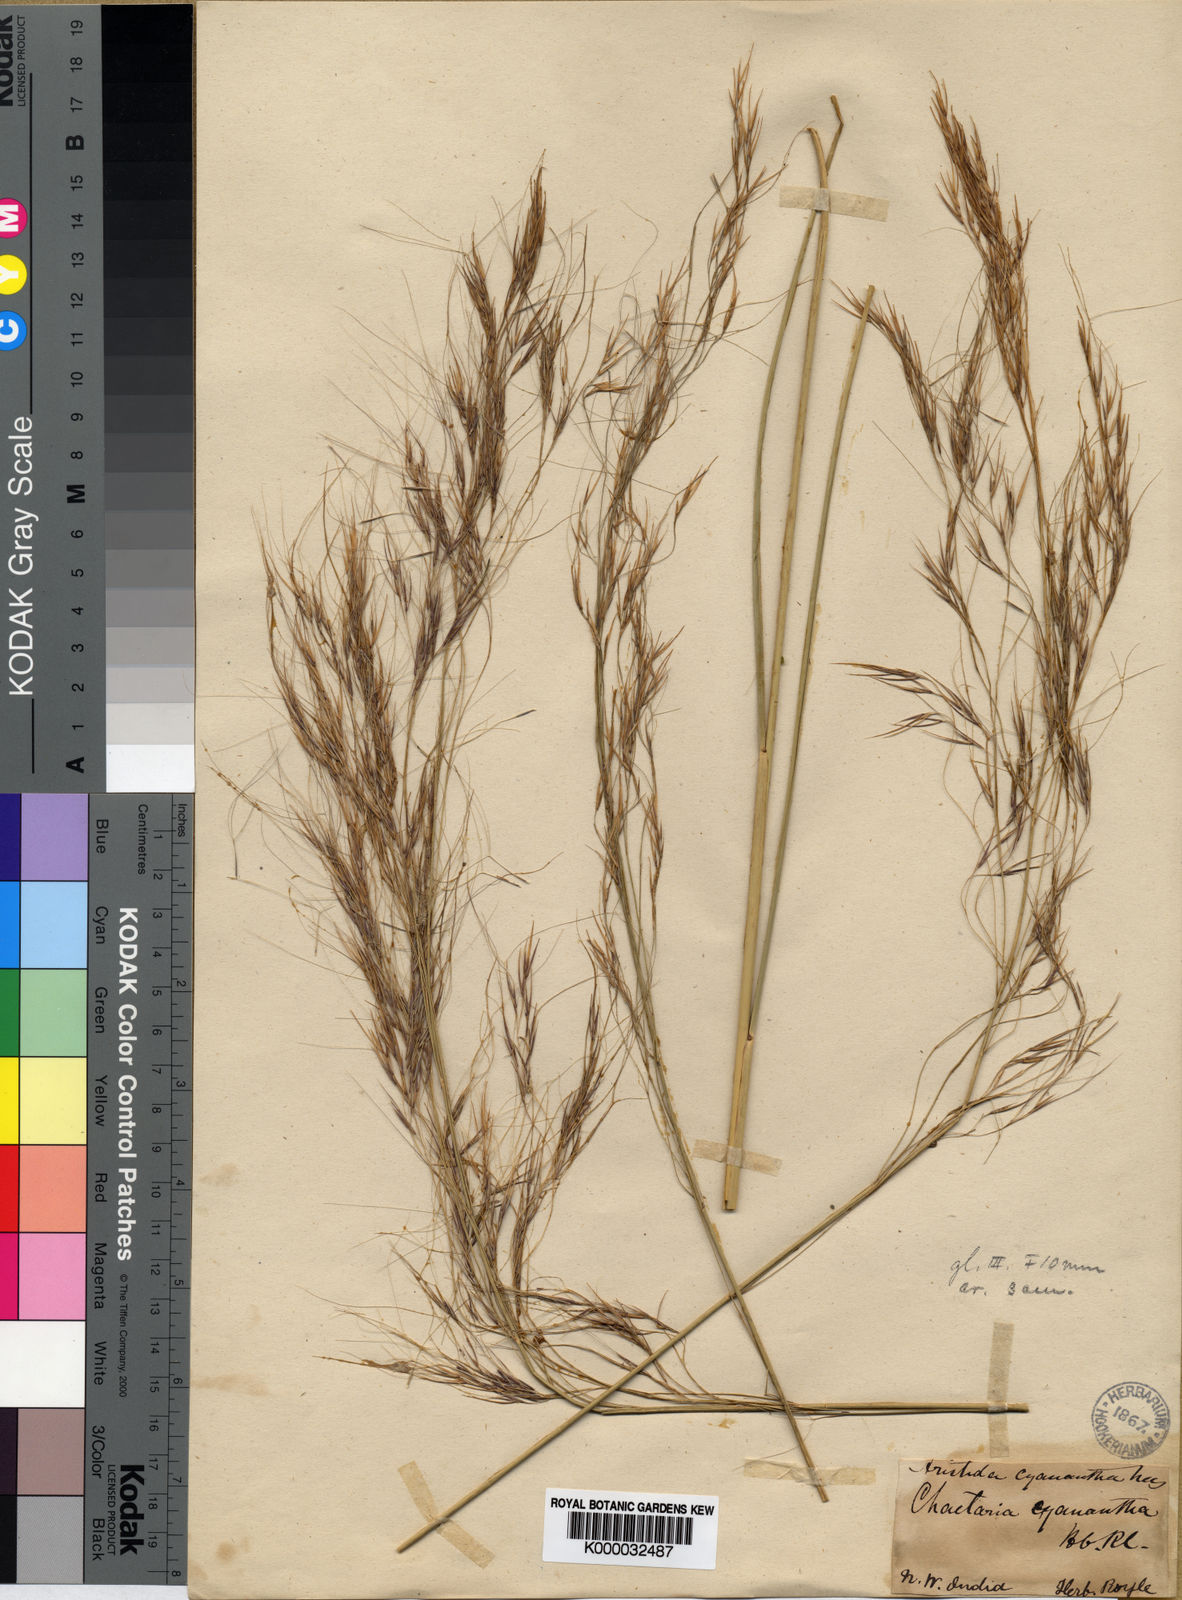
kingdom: Plantae
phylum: Tracheophyta
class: Liliopsida
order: Poales
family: Poaceae
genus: Aristida
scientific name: Aristida cyanantha
